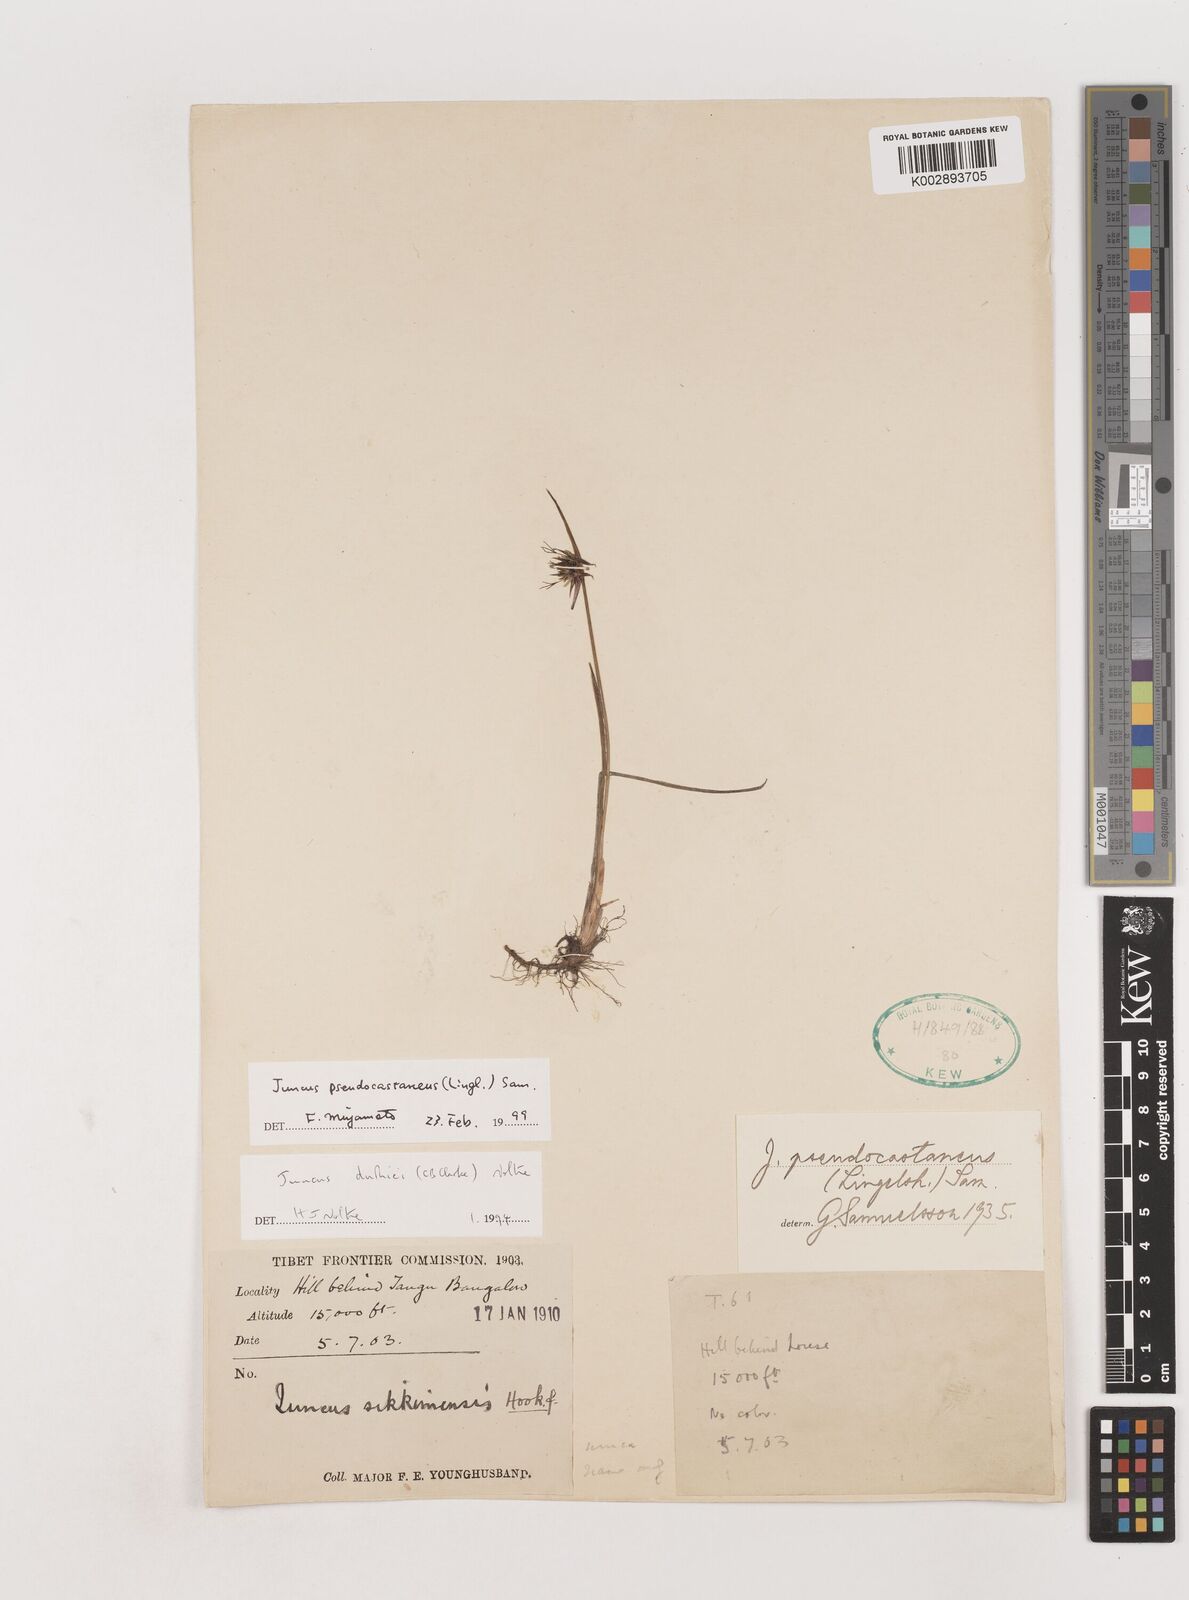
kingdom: Plantae
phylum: Tracheophyta
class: Liliopsida
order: Poales
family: Juncaceae
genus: Juncus
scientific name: Juncus duthiei
